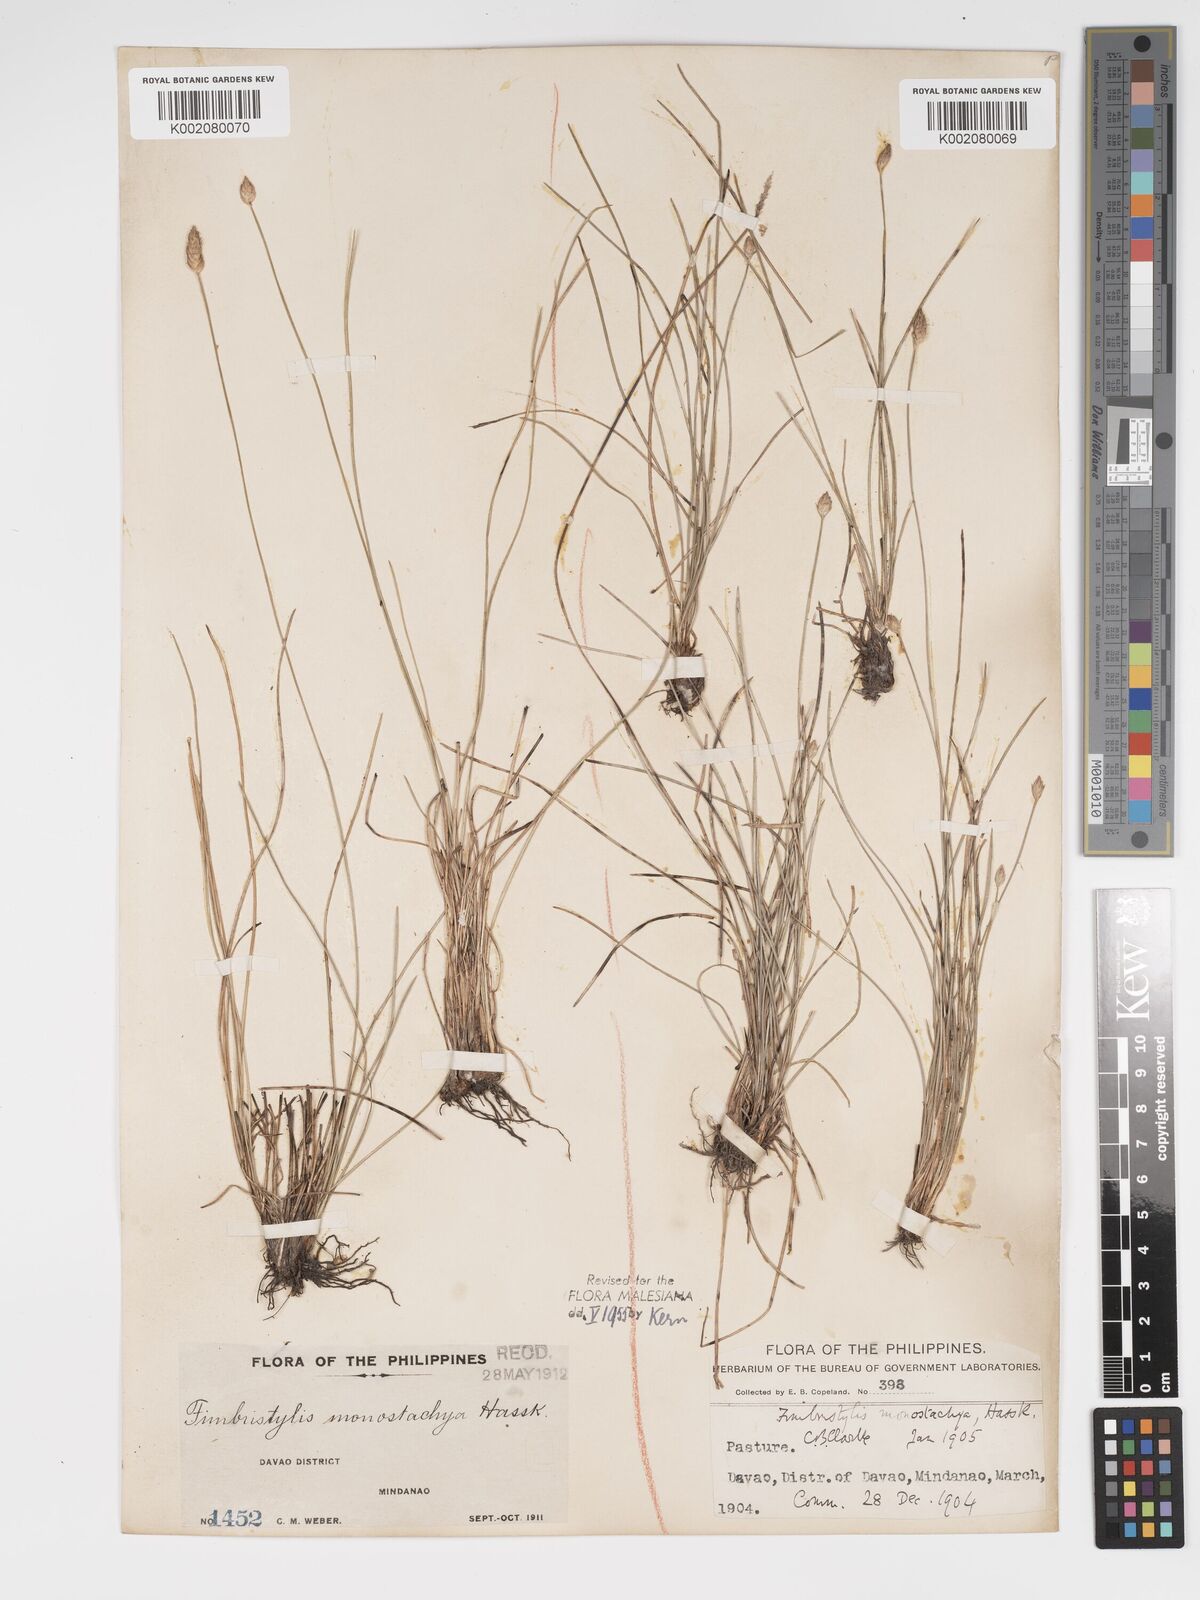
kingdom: Plantae
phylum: Tracheophyta
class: Liliopsida
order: Poales
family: Cyperaceae
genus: Abildgaardia
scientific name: Abildgaardia ovata
